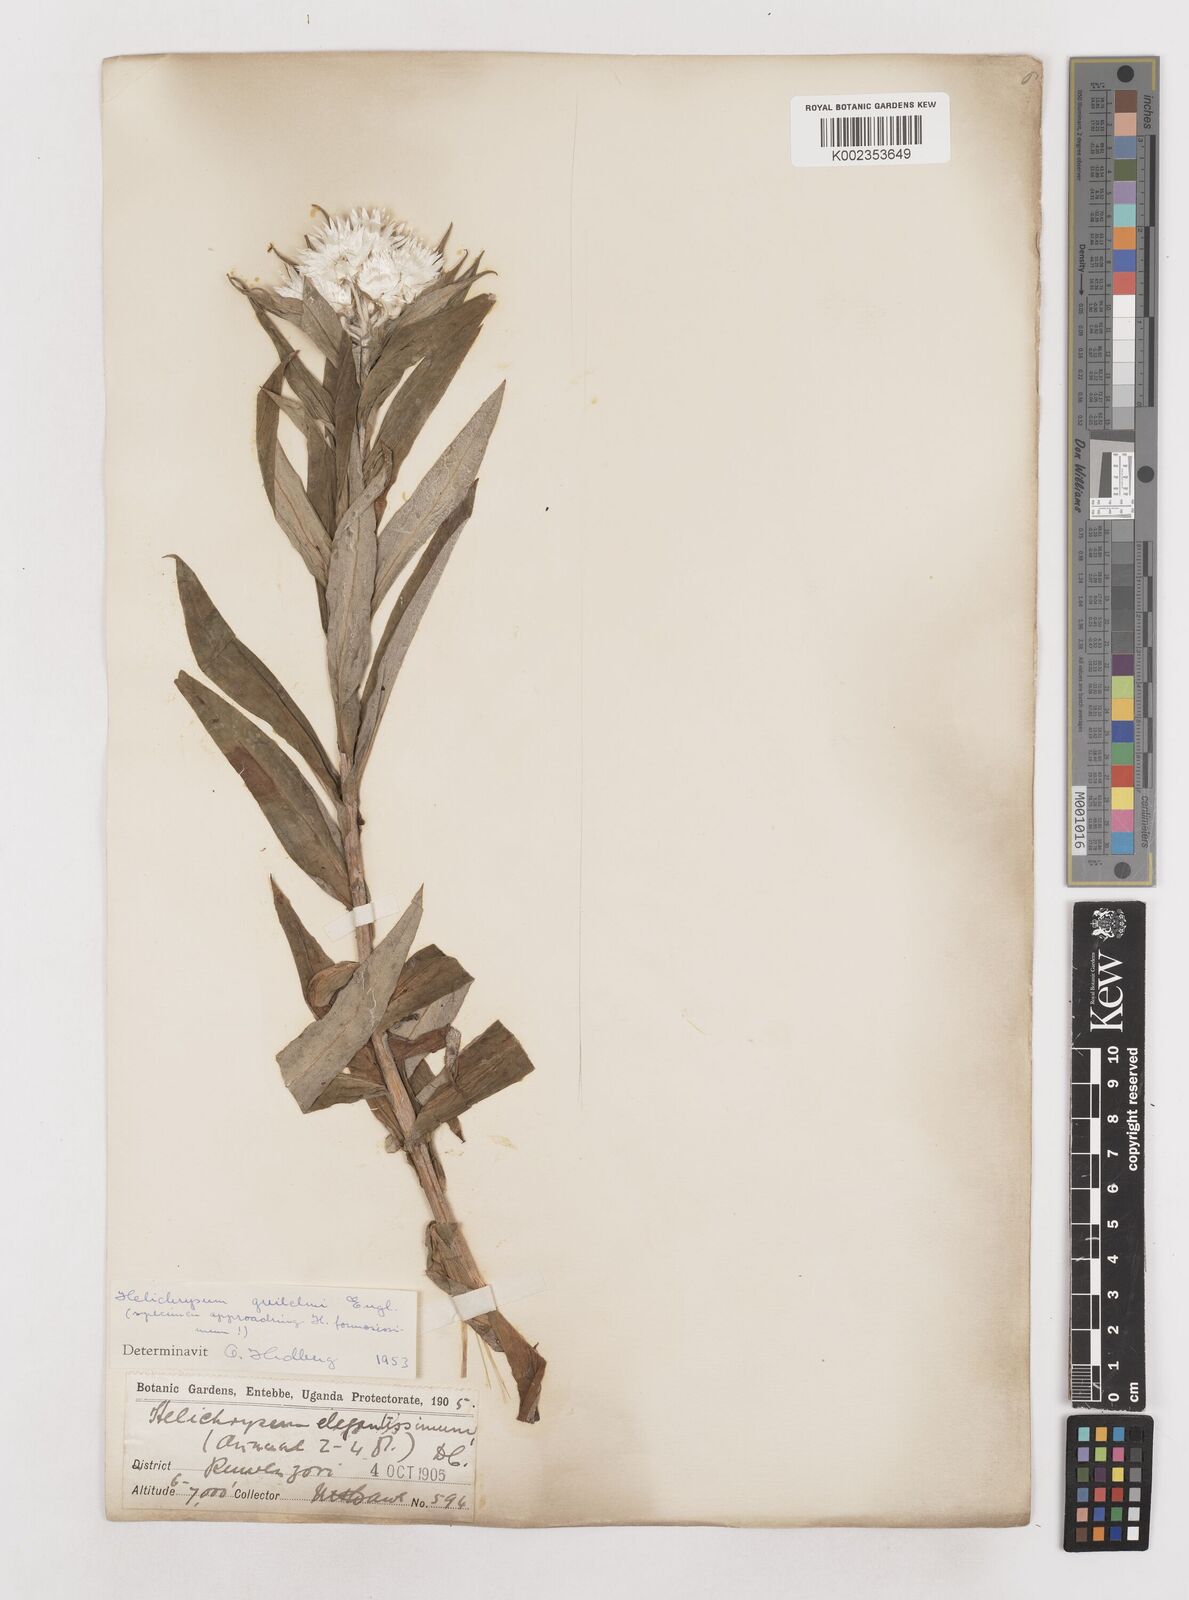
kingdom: Plantae
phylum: Tracheophyta
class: Magnoliopsida
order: Asterales
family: Asteraceae
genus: Helichrysum
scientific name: Helichrysum formosissimum
